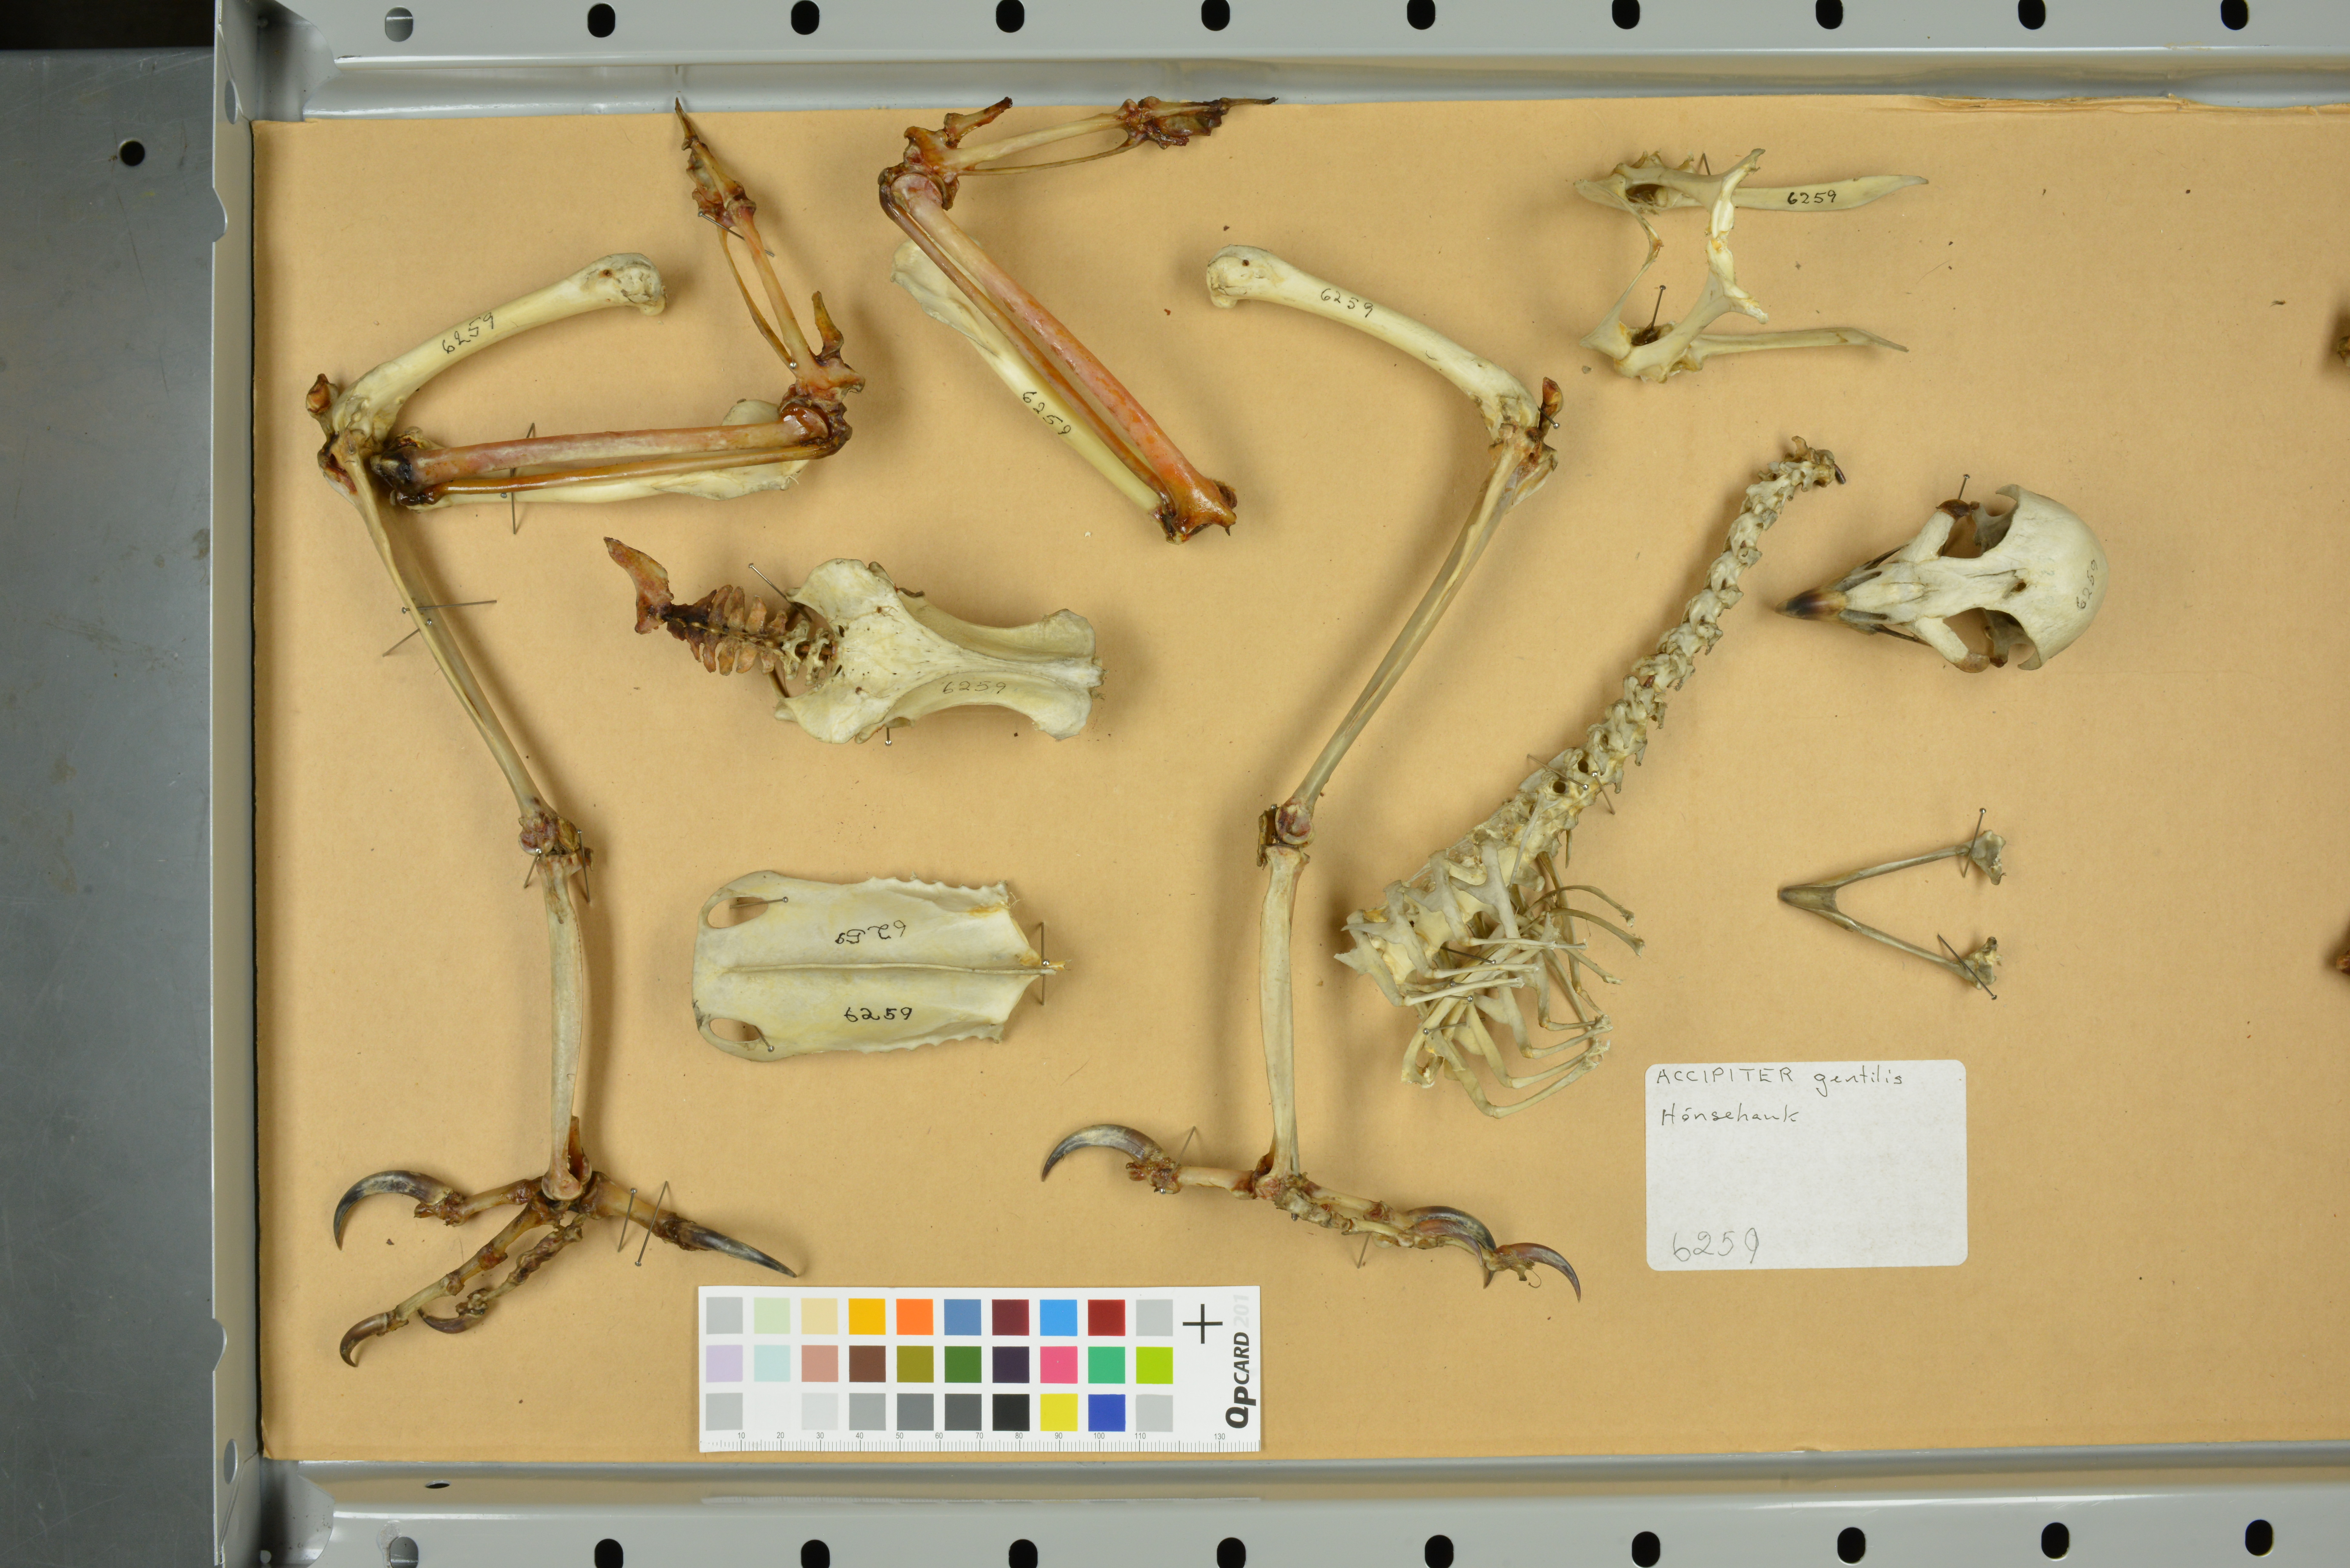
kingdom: Animalia
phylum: Chordata
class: Aves
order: Accipitriformes
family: Accipitridae
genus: Accipiter
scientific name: Accipiter gentilis
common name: Northern goshawk
